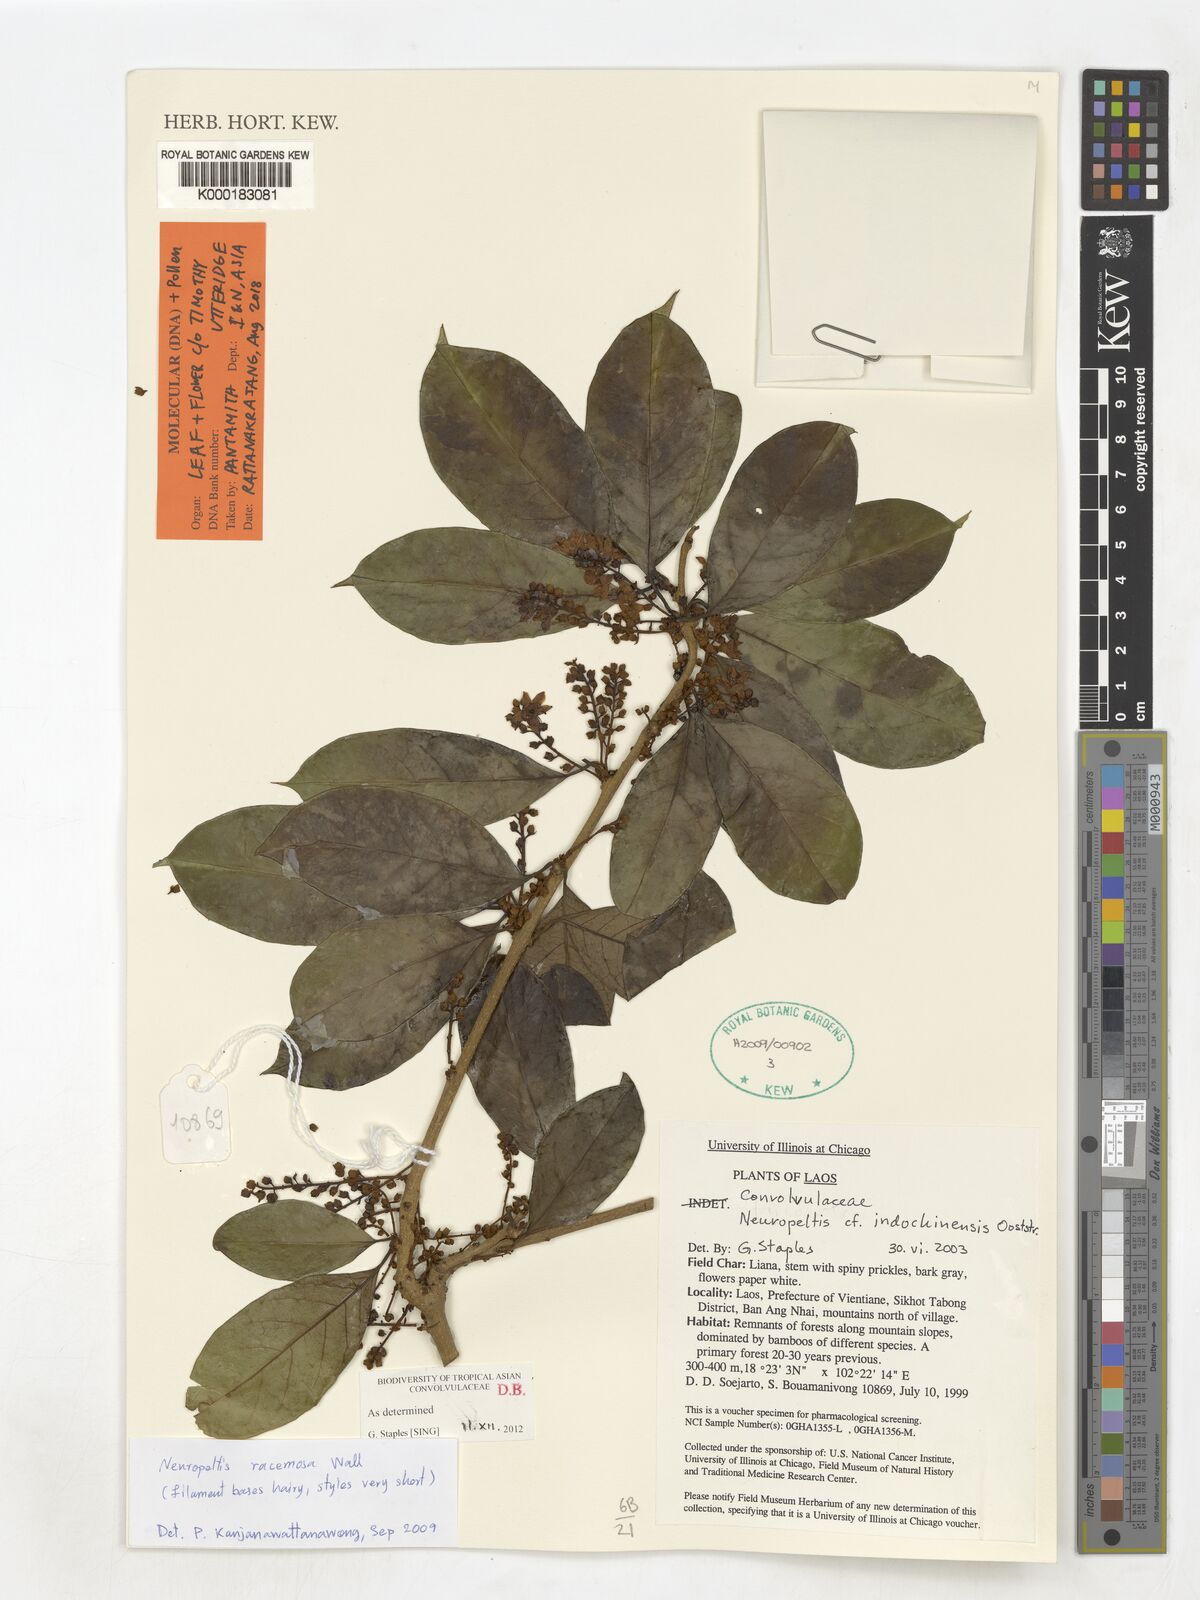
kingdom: Plantae
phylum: Tracheophyta
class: Magnoliopsida
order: Solanales
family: Convolvulaceae
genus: Neuropeltis
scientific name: Neuropeltis indochinensis
